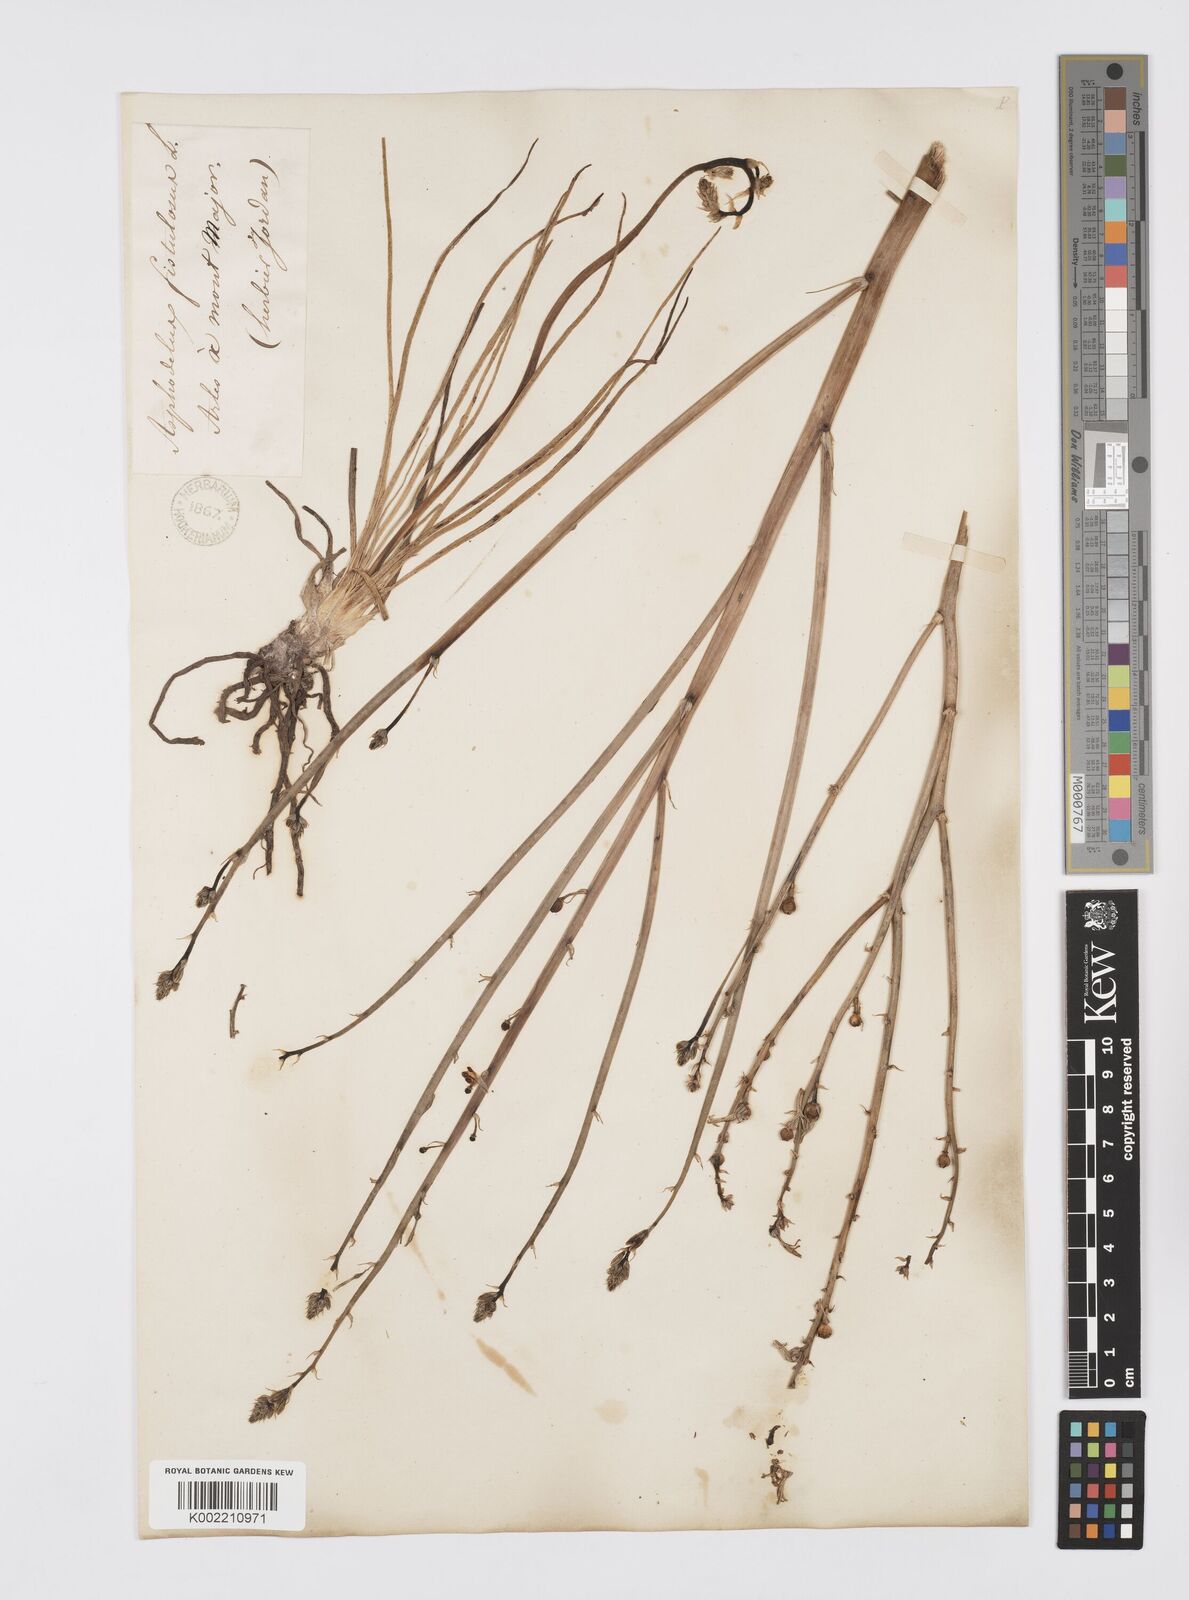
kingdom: Plantae
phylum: Tracheophyta
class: Liliopsida
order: Asparagales
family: Asphodelaceae
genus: Asphodelus
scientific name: Asphodelus fistulosus
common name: Onionweed
